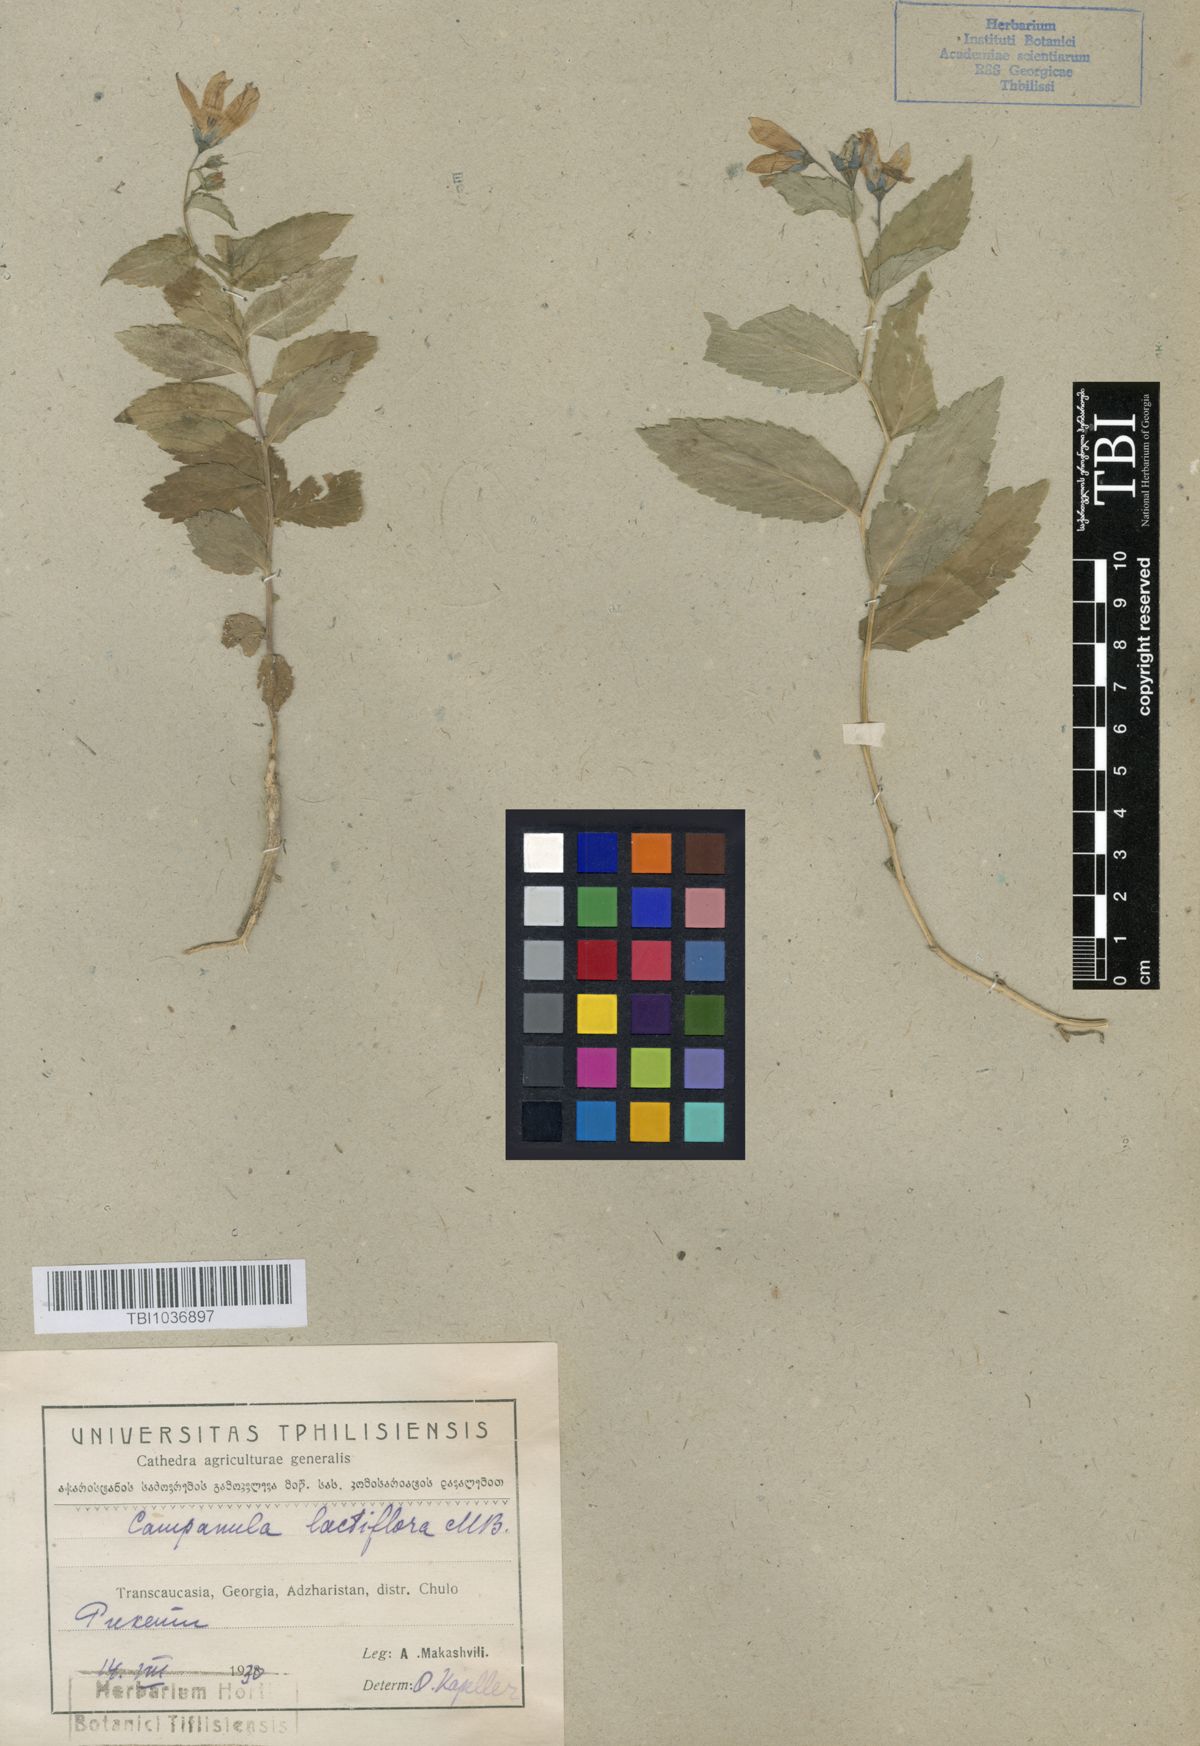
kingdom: Plantae
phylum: Tracheophyta
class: Magnoliopsida
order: Asterales
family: Campanulaceae
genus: Campanula
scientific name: Campanula lactiflora
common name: Milky bellflower
